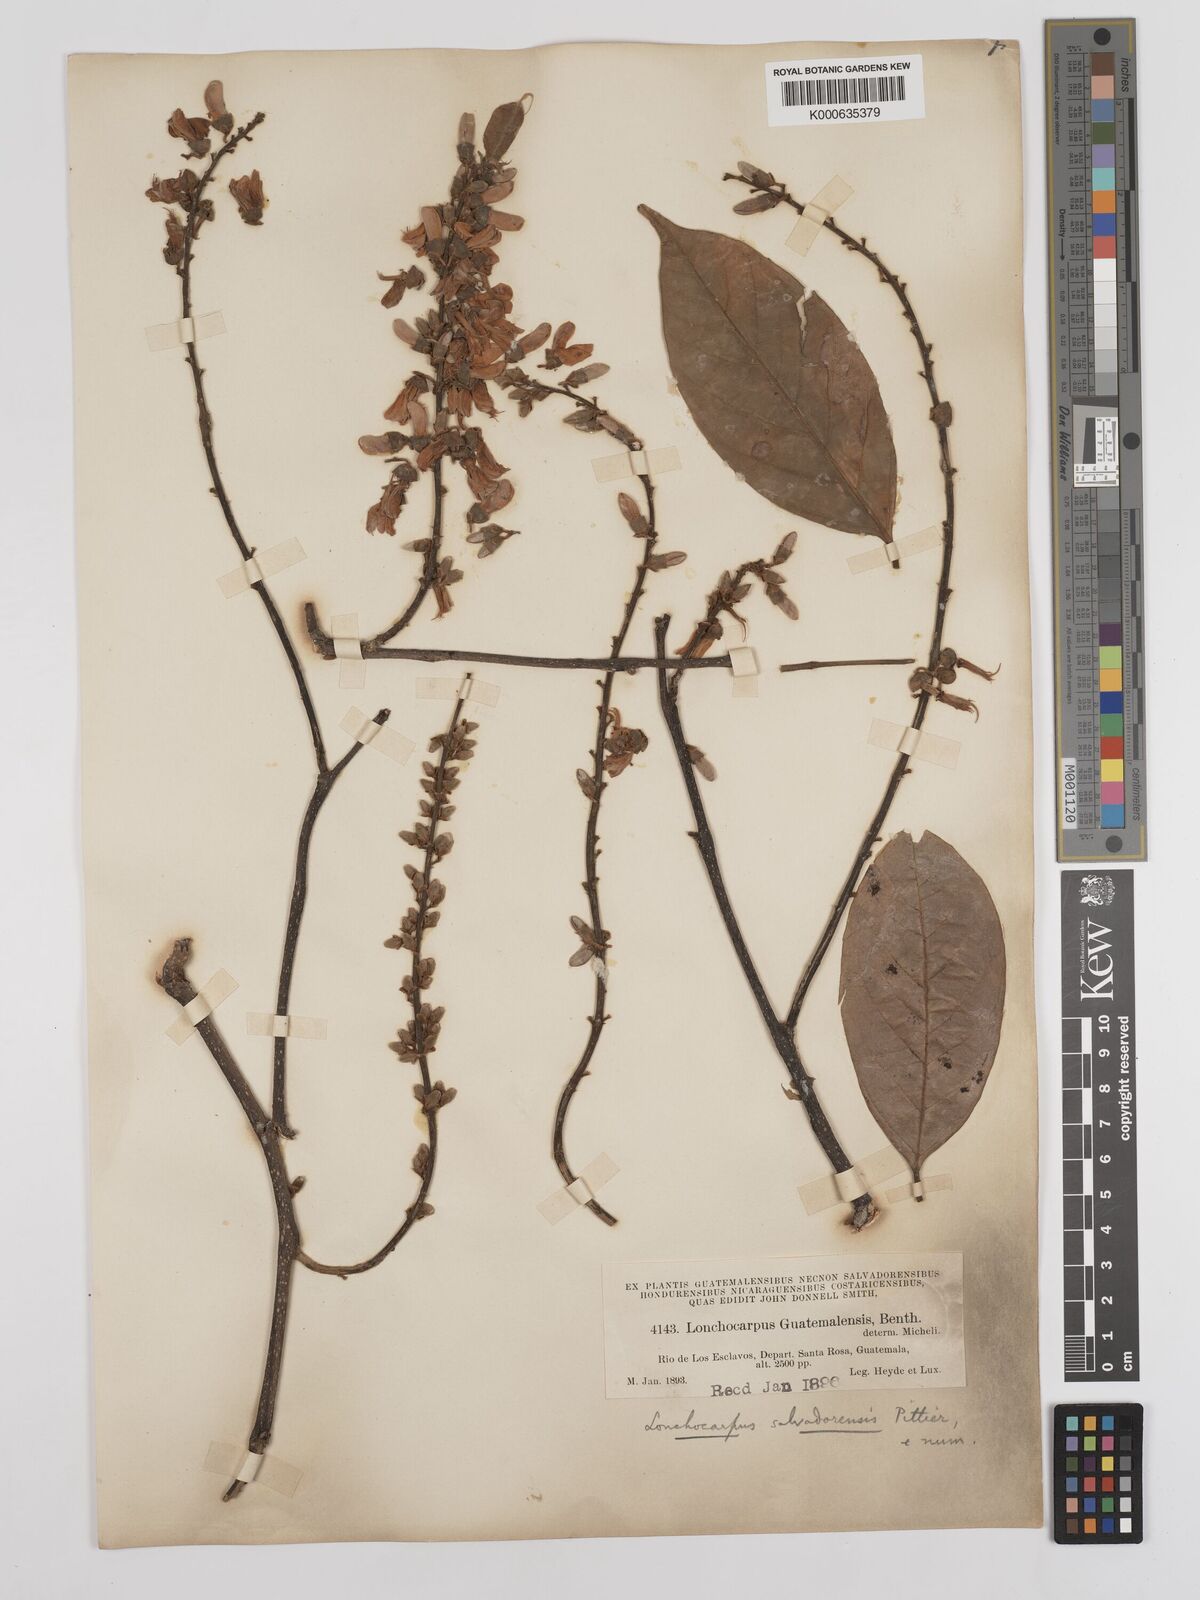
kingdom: Plantae
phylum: Tracheophyta
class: Magnoliopsida
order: Fabales
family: Fabaceae
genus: Lonchocarpus
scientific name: Lonchocarpus salvadorensis
